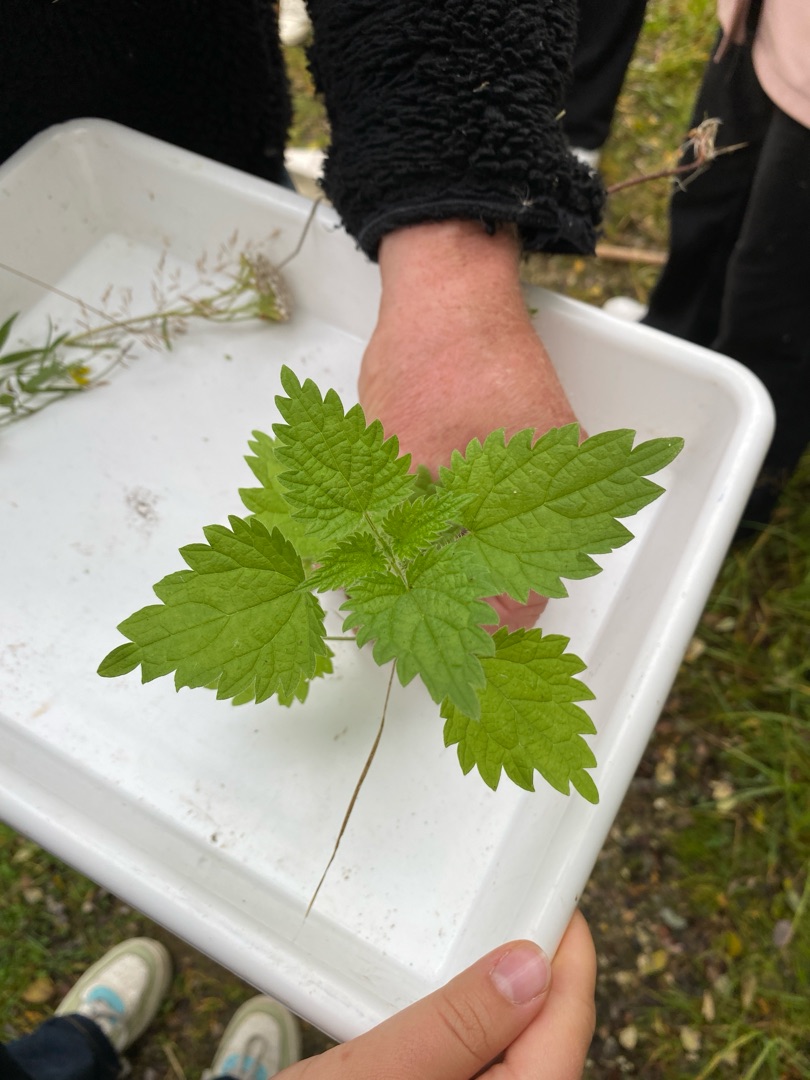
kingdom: Plantae
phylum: Tracheophyta
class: Magnoliopsida
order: Rosales
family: Urticaceae
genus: Urtica
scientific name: Urtica dioica
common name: Stor nælde
